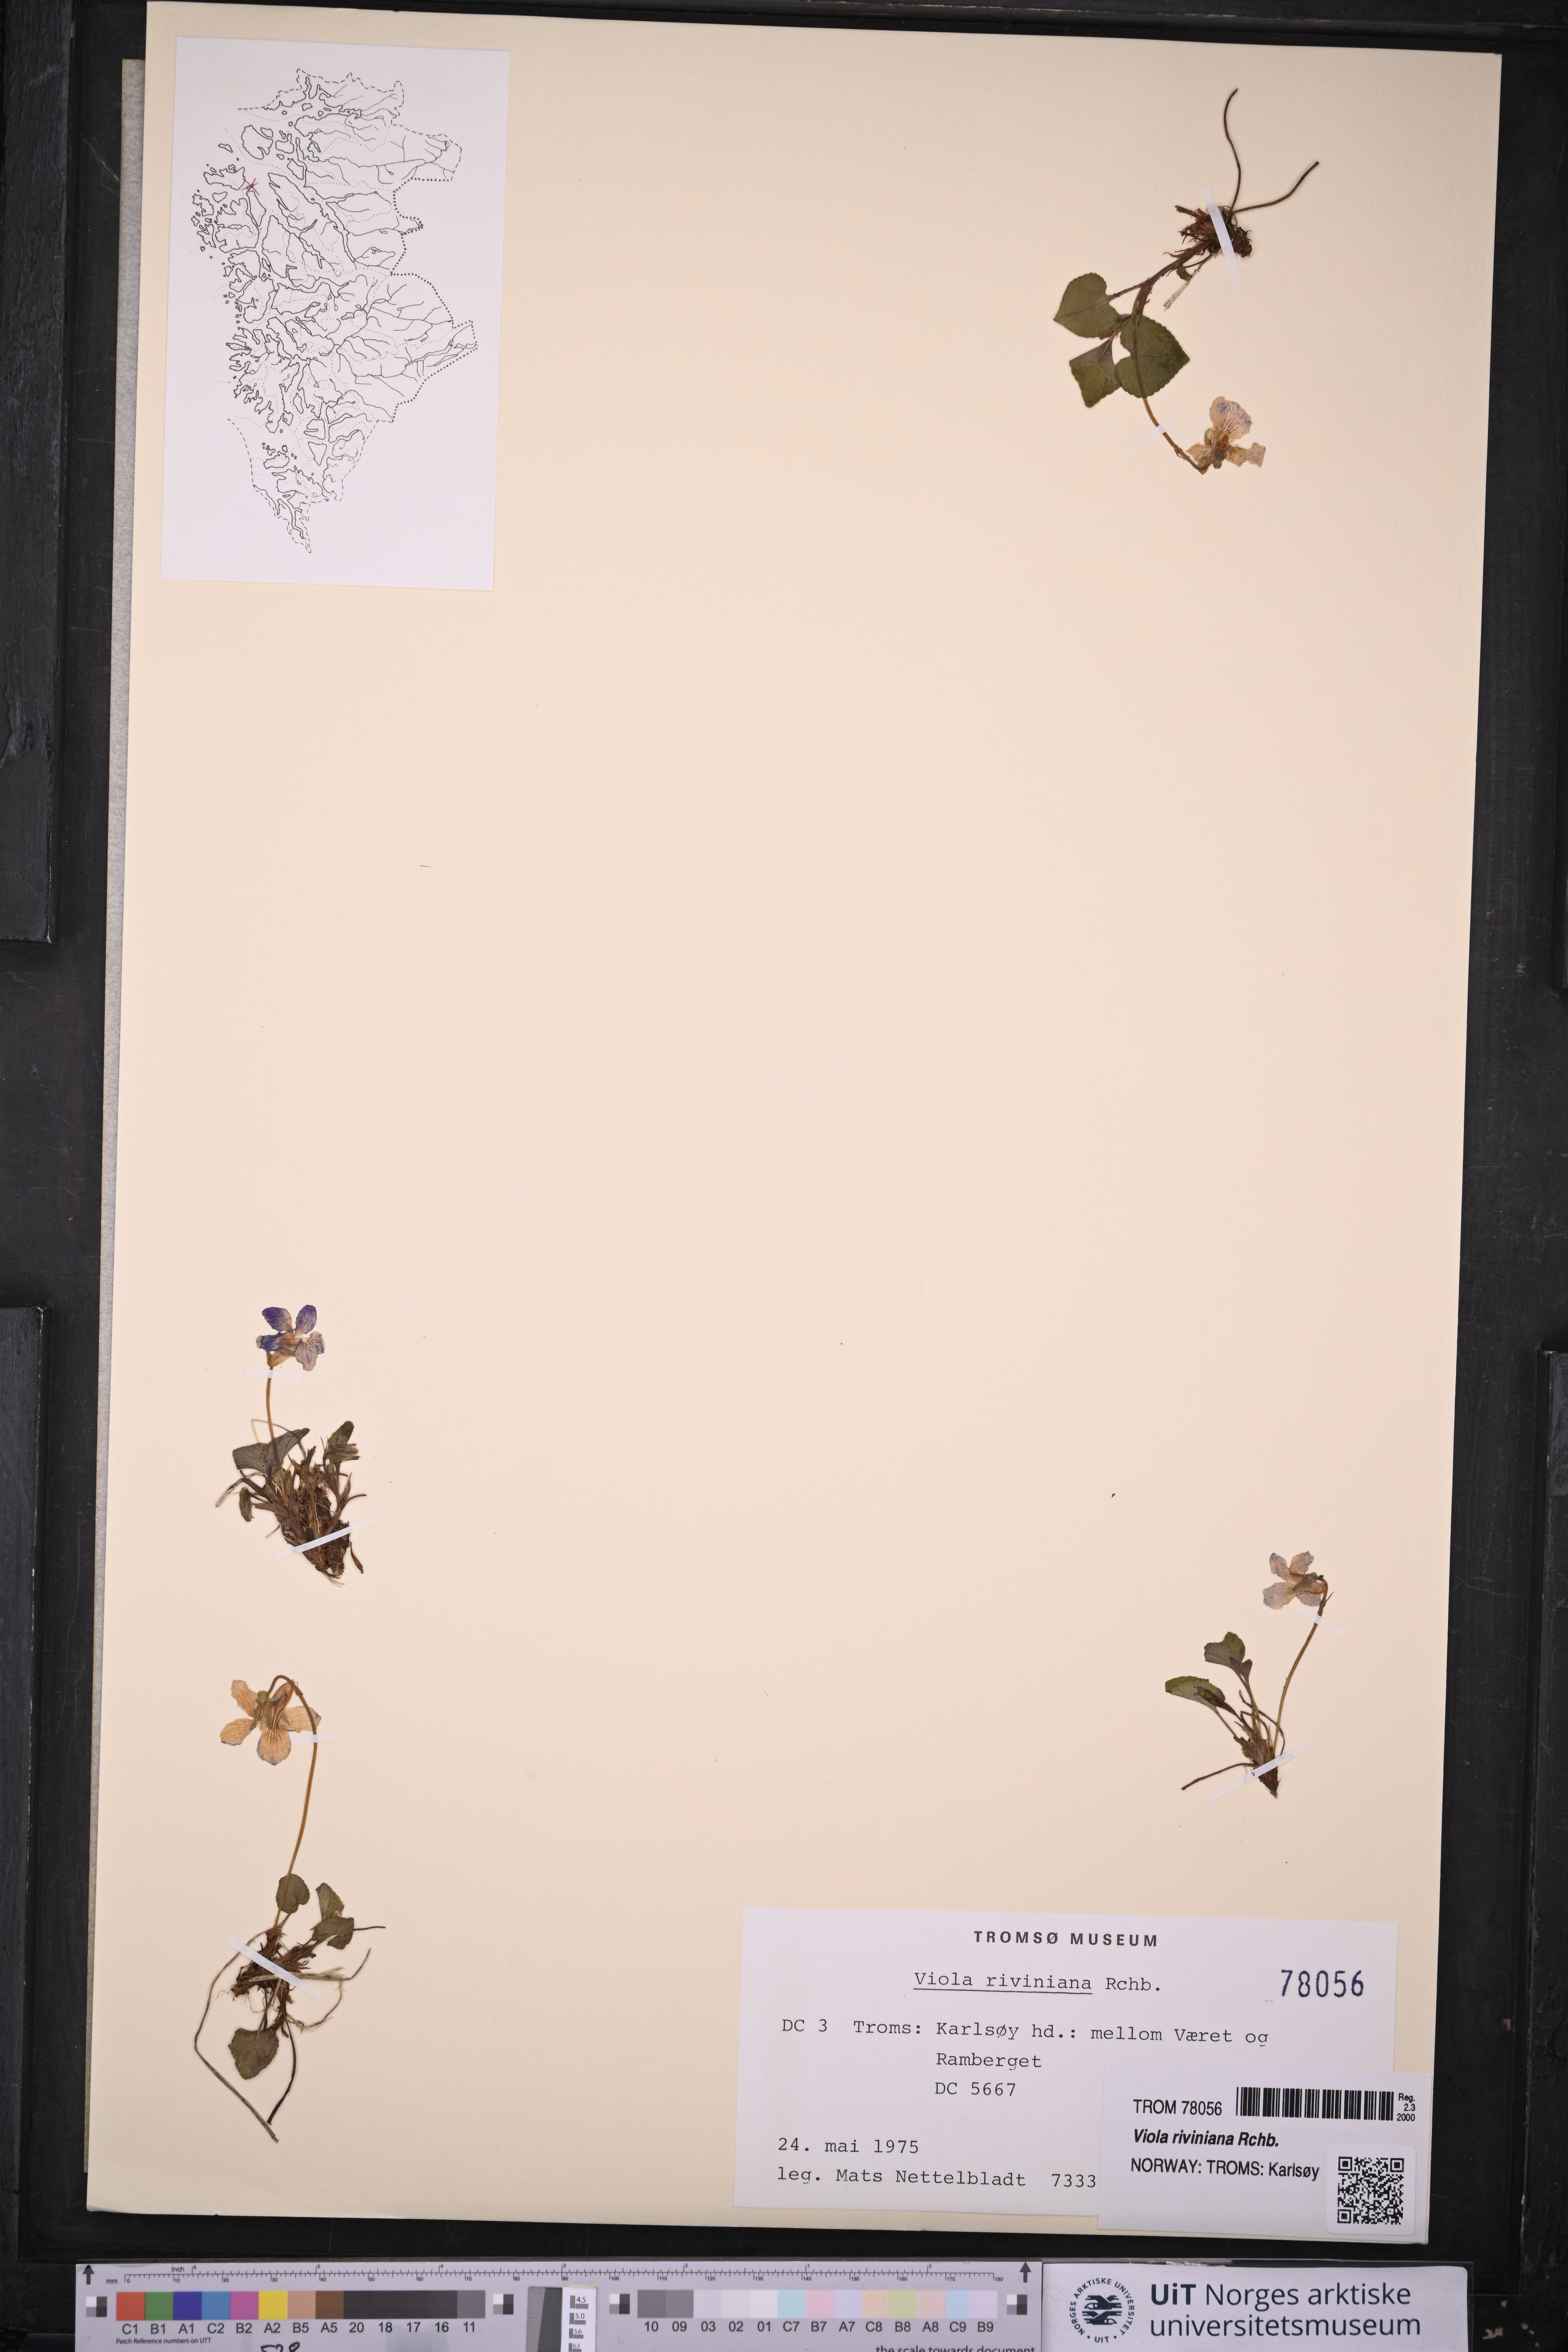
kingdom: Plantae
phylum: Tracheophyta
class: Magnoliopsida
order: Malpighiales
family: Violaceae
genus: Viola
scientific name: Viola riviniana
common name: Common dog-violet
